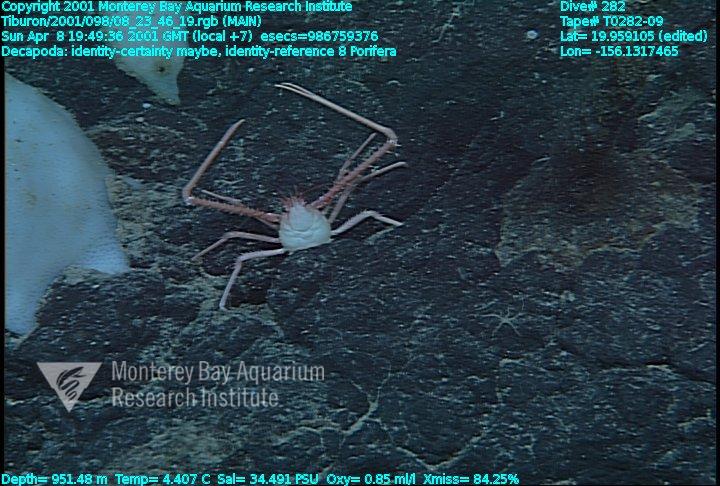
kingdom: Animalia
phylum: Porifera
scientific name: Porifera
